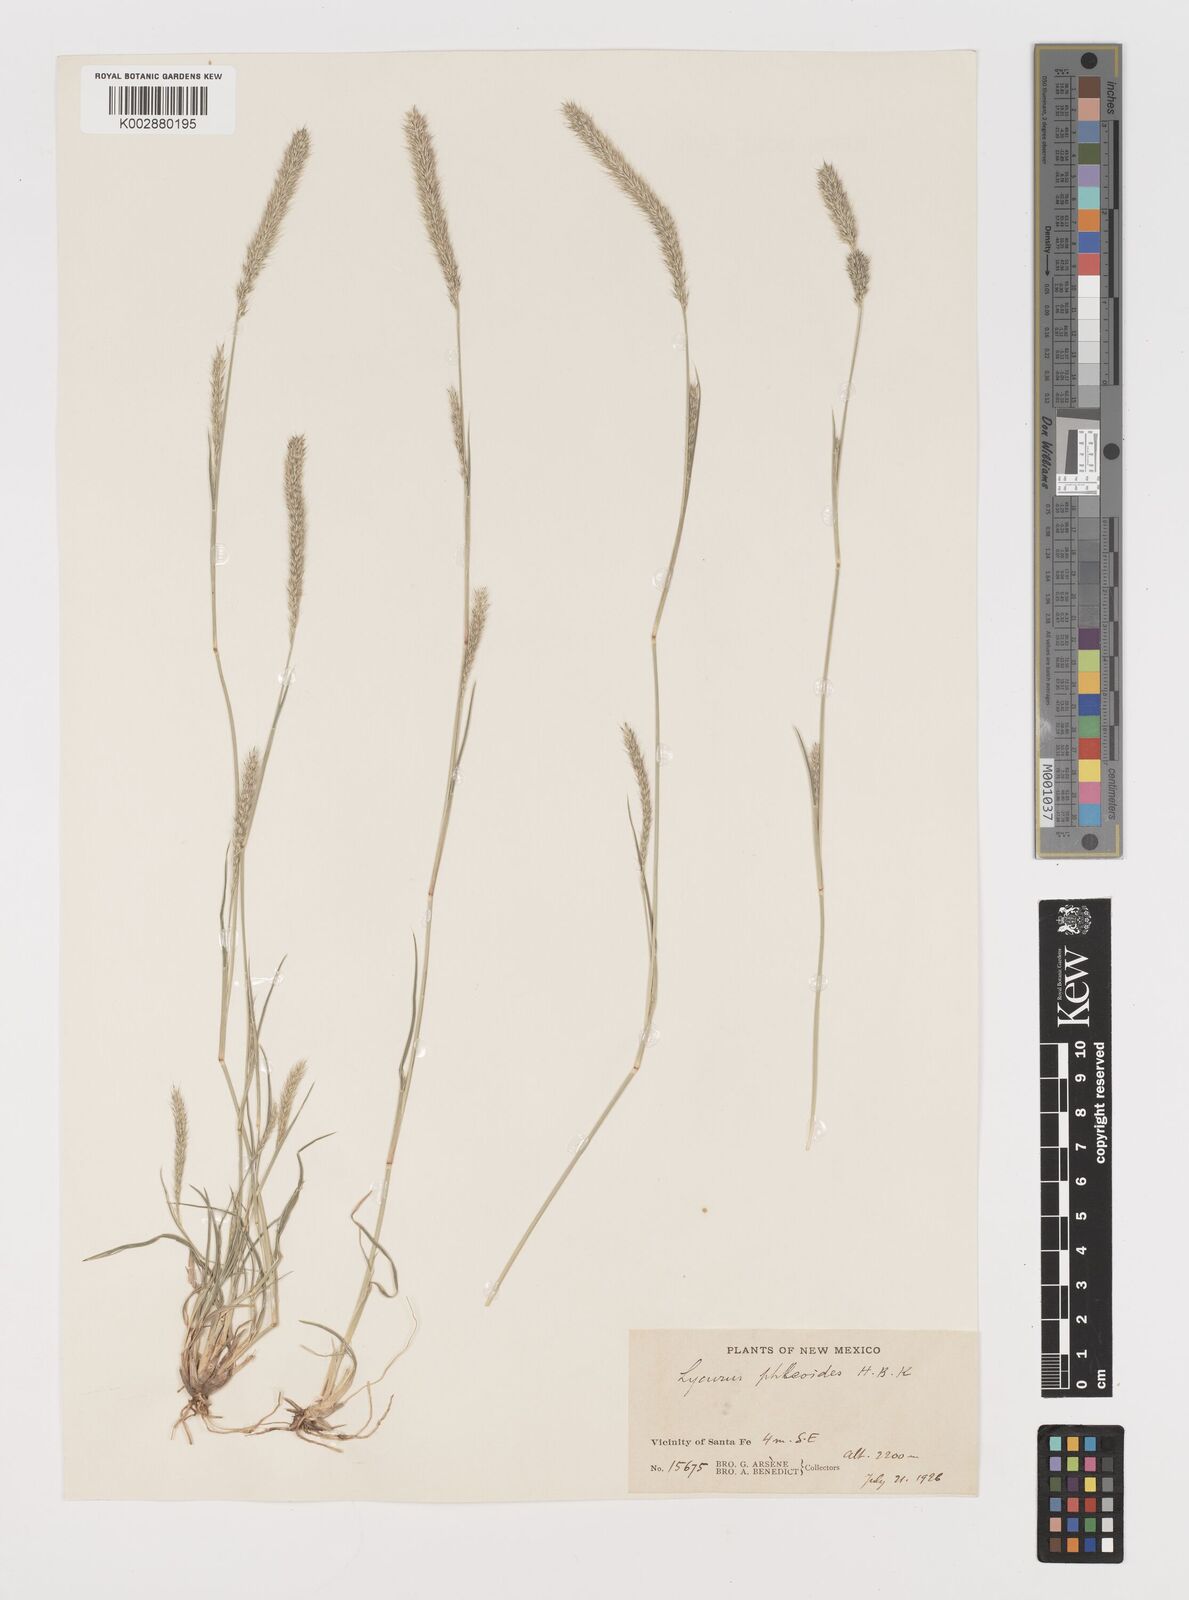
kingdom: Plantae
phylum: Tracheophyta
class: Liliopsida
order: Poales
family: Poaceae
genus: Muhlenbergia
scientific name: Muhlenbergia alopecuroides
